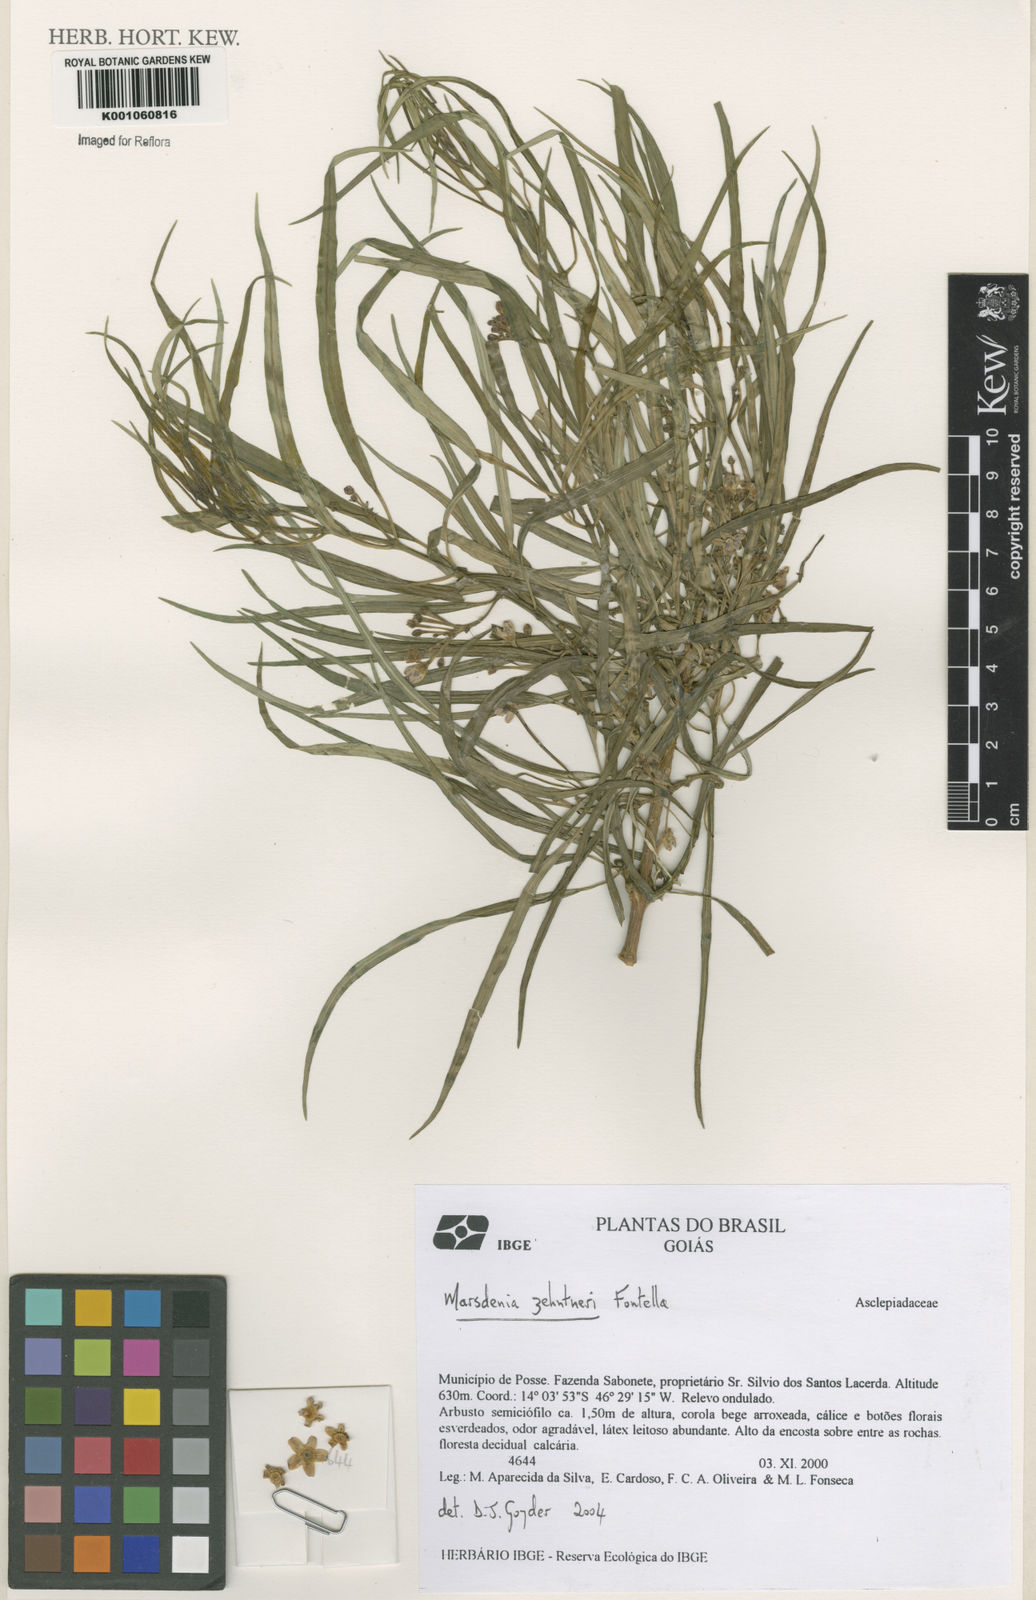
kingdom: Plantae
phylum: Tracheophyta
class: Magnoliopsida
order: Gentianales
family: Apocynaceae
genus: Ruehssia
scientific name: Ruehssia zehntneri
